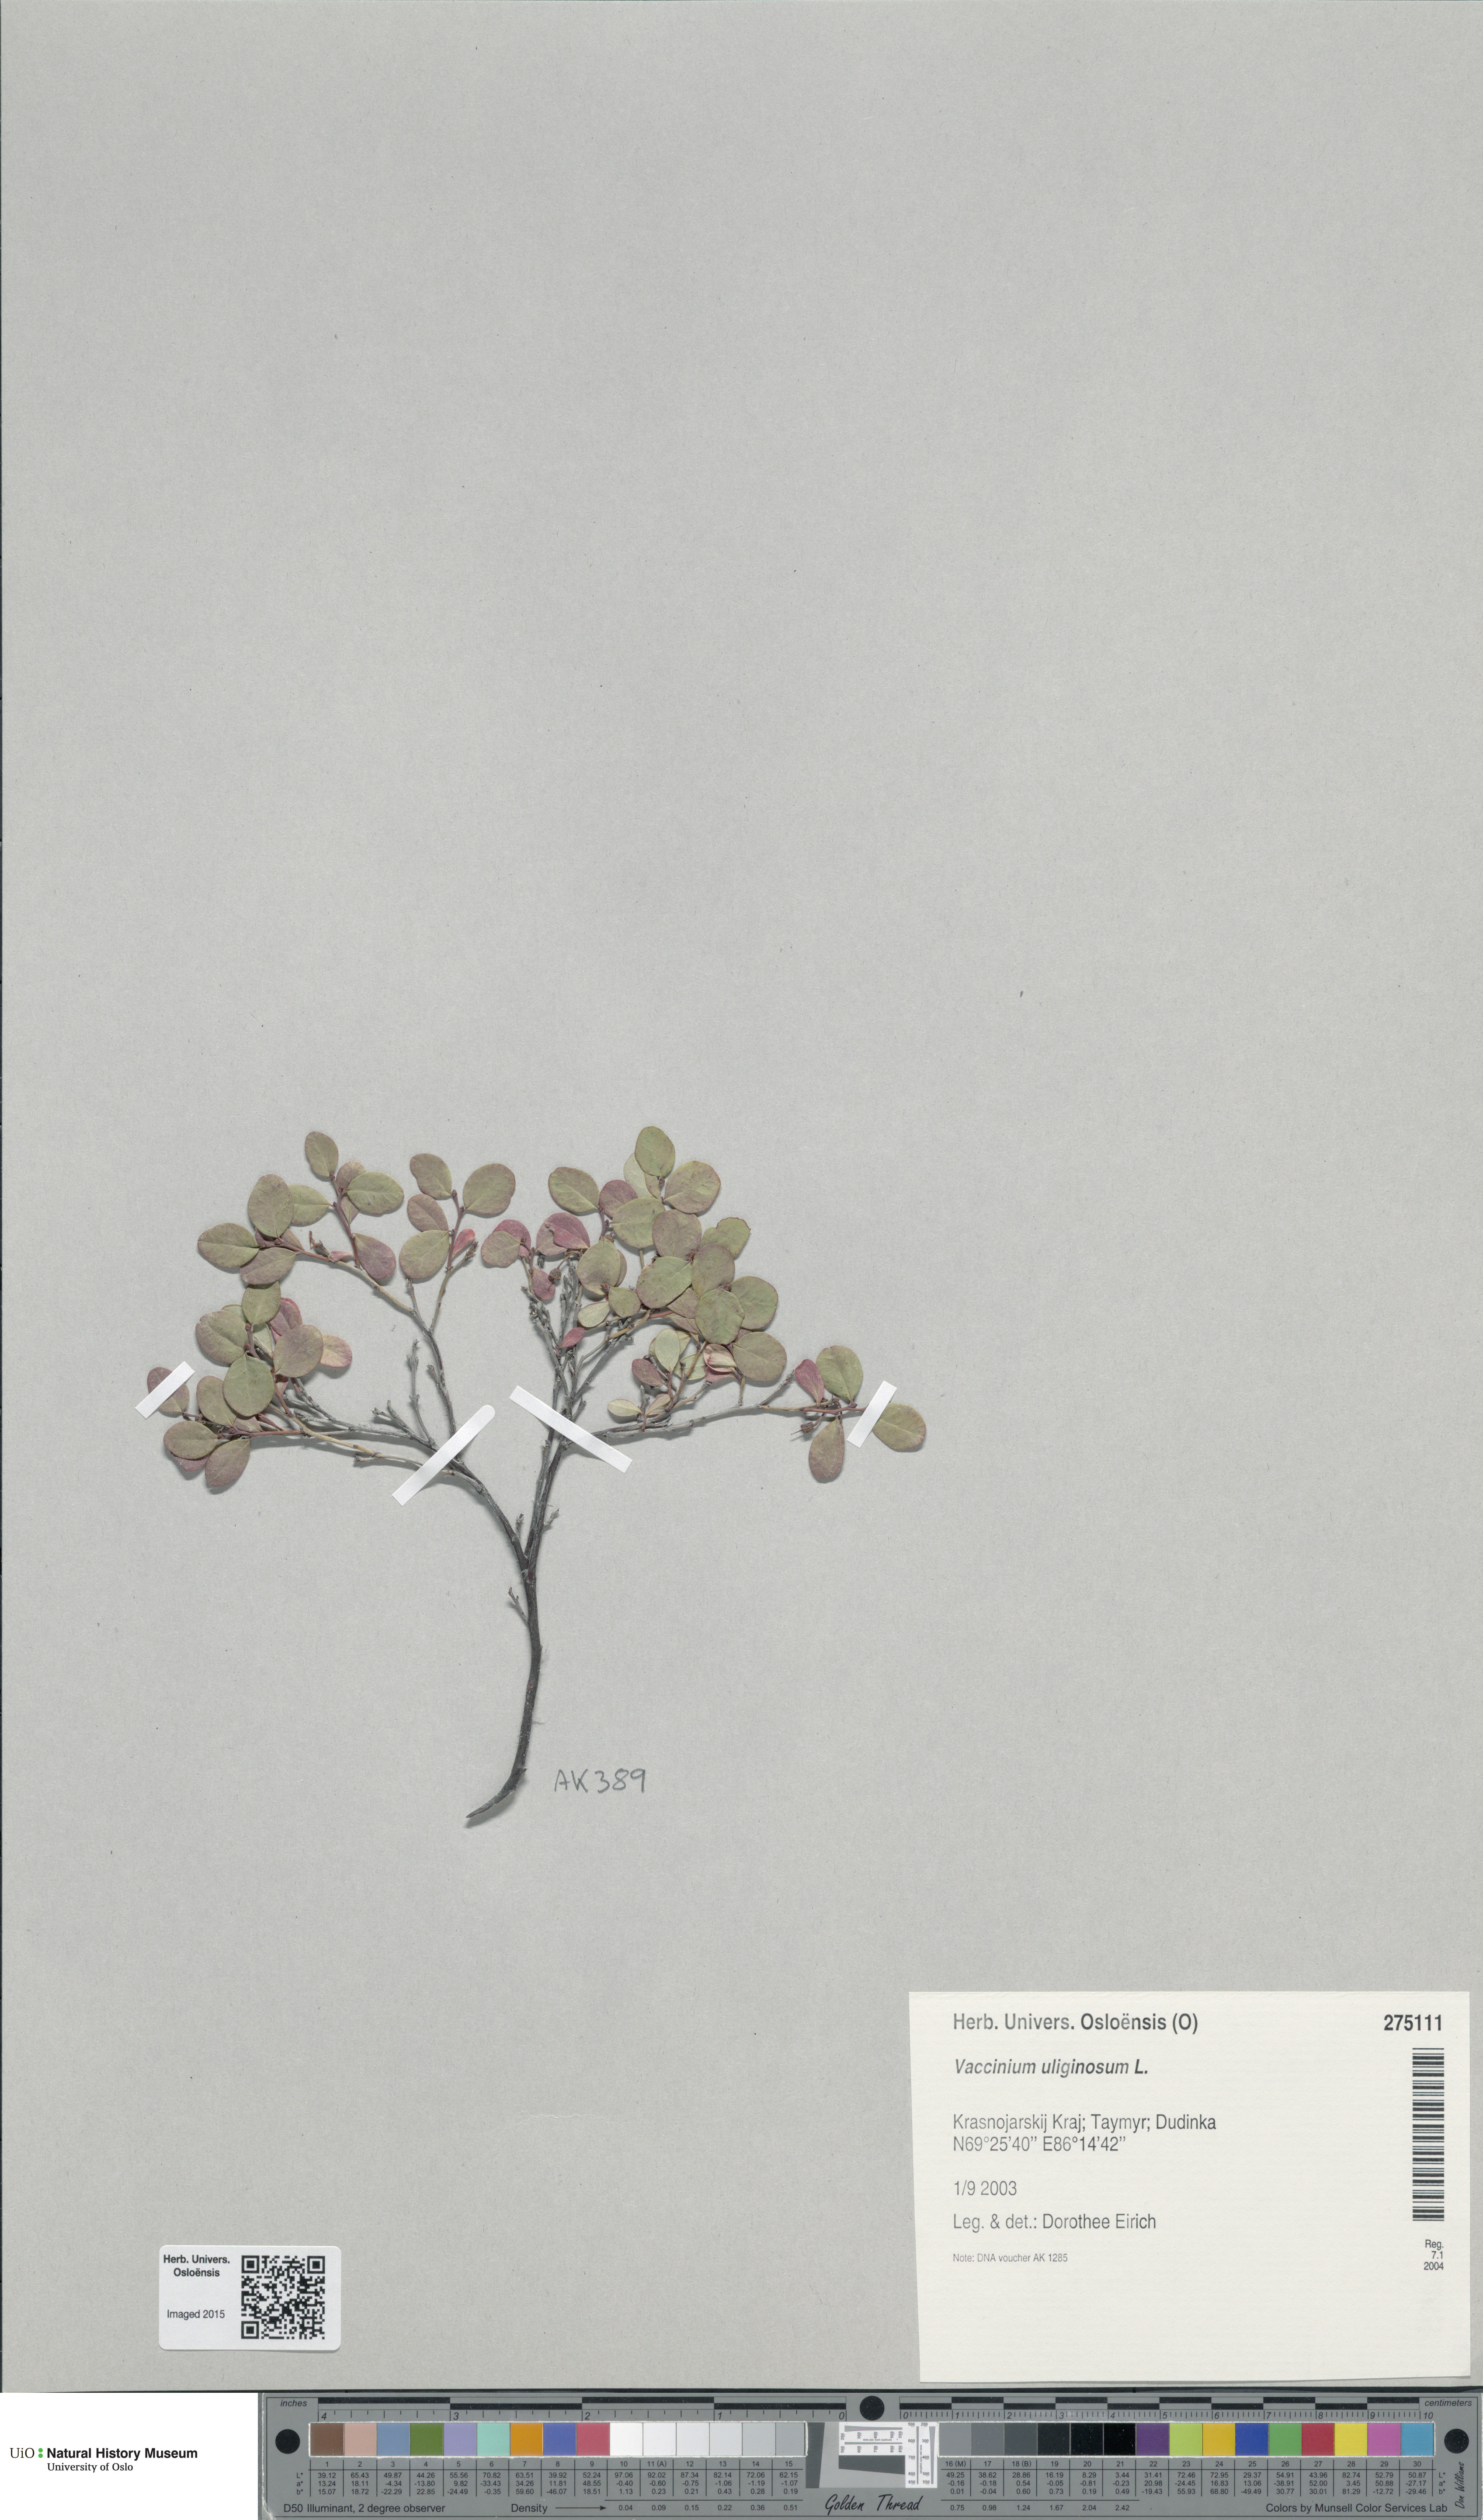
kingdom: Plantae
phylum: Tracheophyta
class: Magnoliopsida
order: Ericales
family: Ericaceae
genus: Vaccinium
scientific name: Vaccinium uliginosum
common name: Bog bilberry
